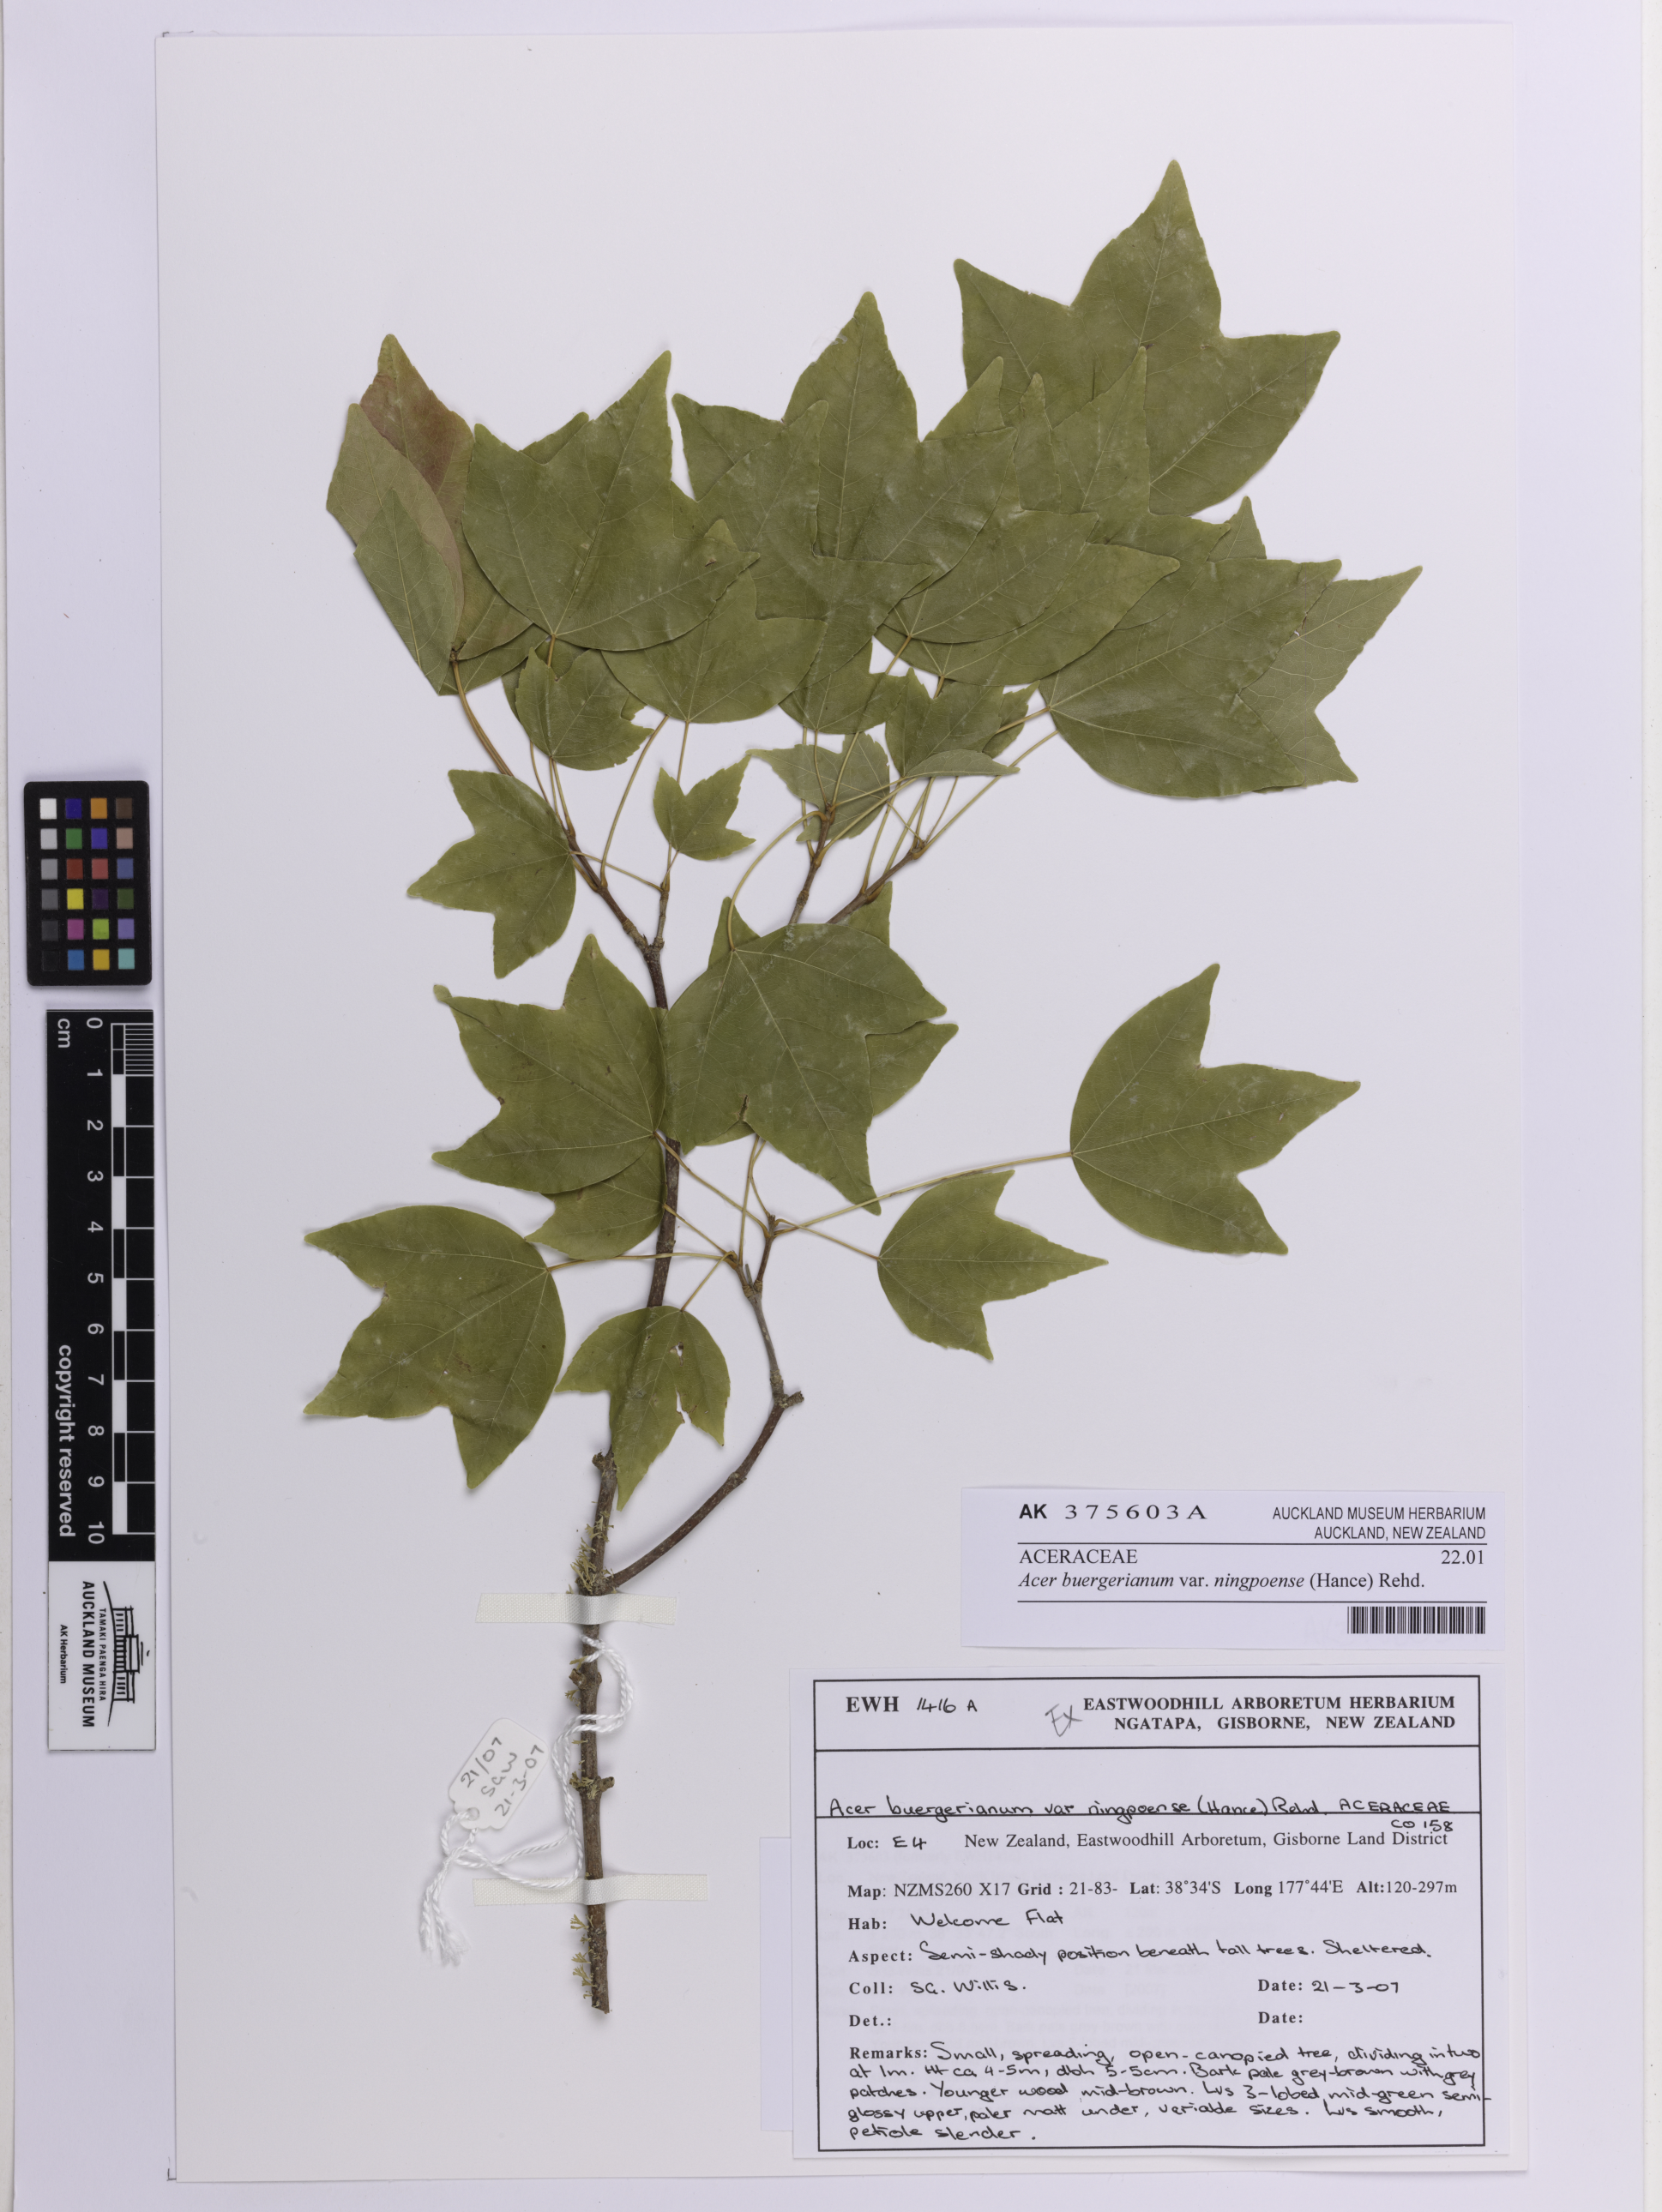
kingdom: Plantae
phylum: Tracheophyta
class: Magnoliopsida
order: Sapindales
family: Sapindaceae
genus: Acer
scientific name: Acer buergerianum
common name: Trident maple
